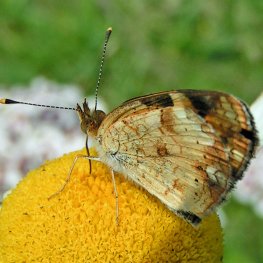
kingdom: Animalia
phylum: Arthropoda
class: Insecta
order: Lepidoptera
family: Nymphalidae
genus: Phyciodes
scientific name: Phyciodes tharos
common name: Northern Crescent
